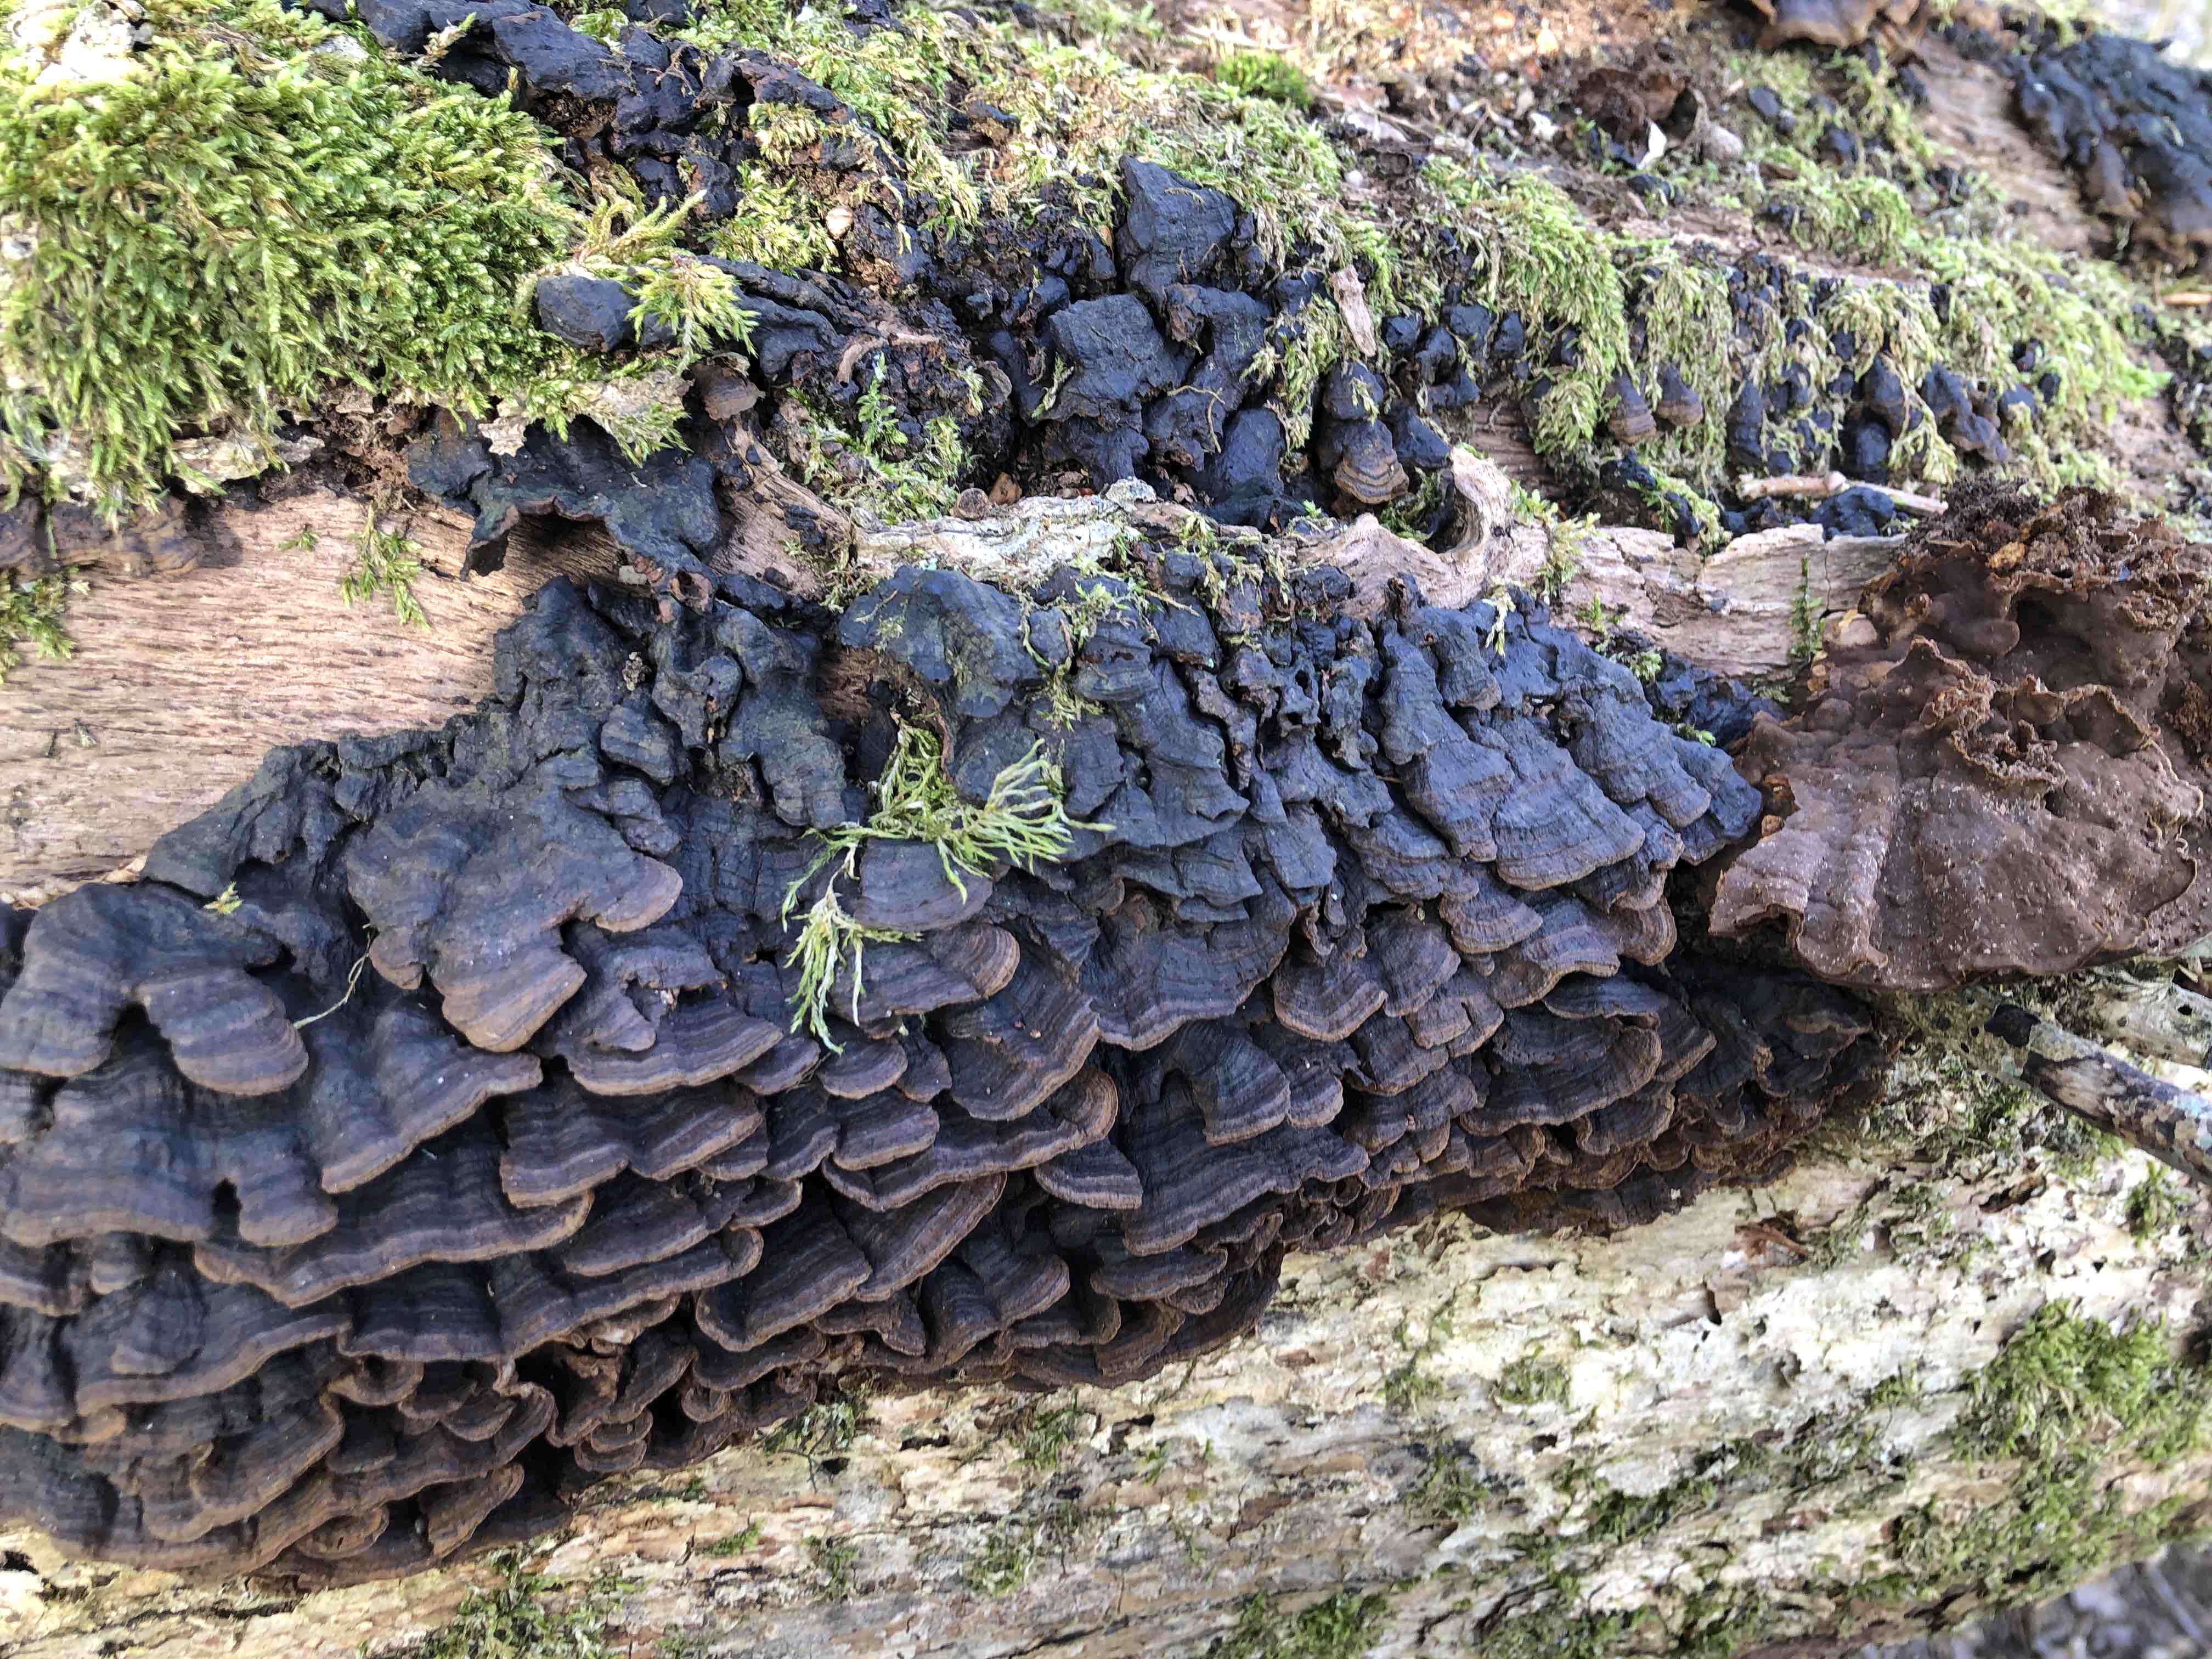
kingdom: Fungi
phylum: Basidiomycota
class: Agaricomycetes
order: Hymenochaetales
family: Hymenochaetaceae
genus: Hymenochaete
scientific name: Hymenochaete rubiginosa
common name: stiv ruslædersvamp
